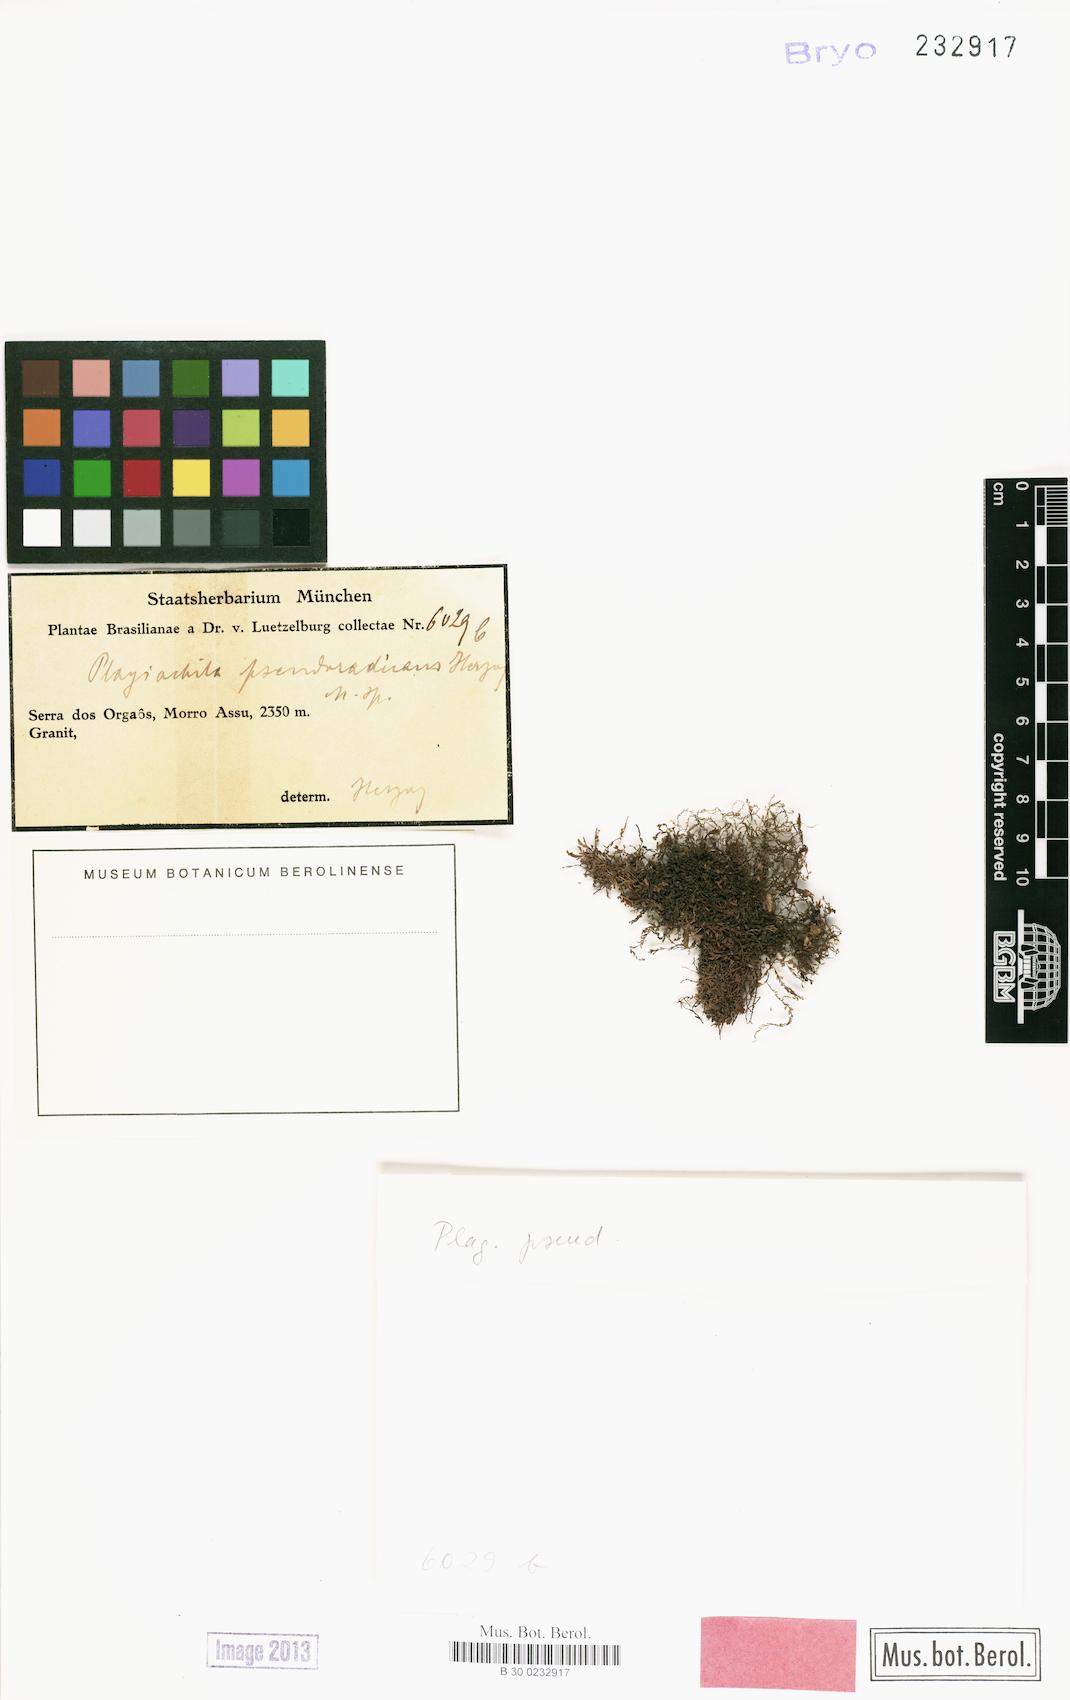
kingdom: Plantae
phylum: Marchantiophyta
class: Jungermanniopsida
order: Jungermanniales
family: Plagiochilaceae
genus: Plagiochila
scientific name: Plagiochila pseudoradicans
